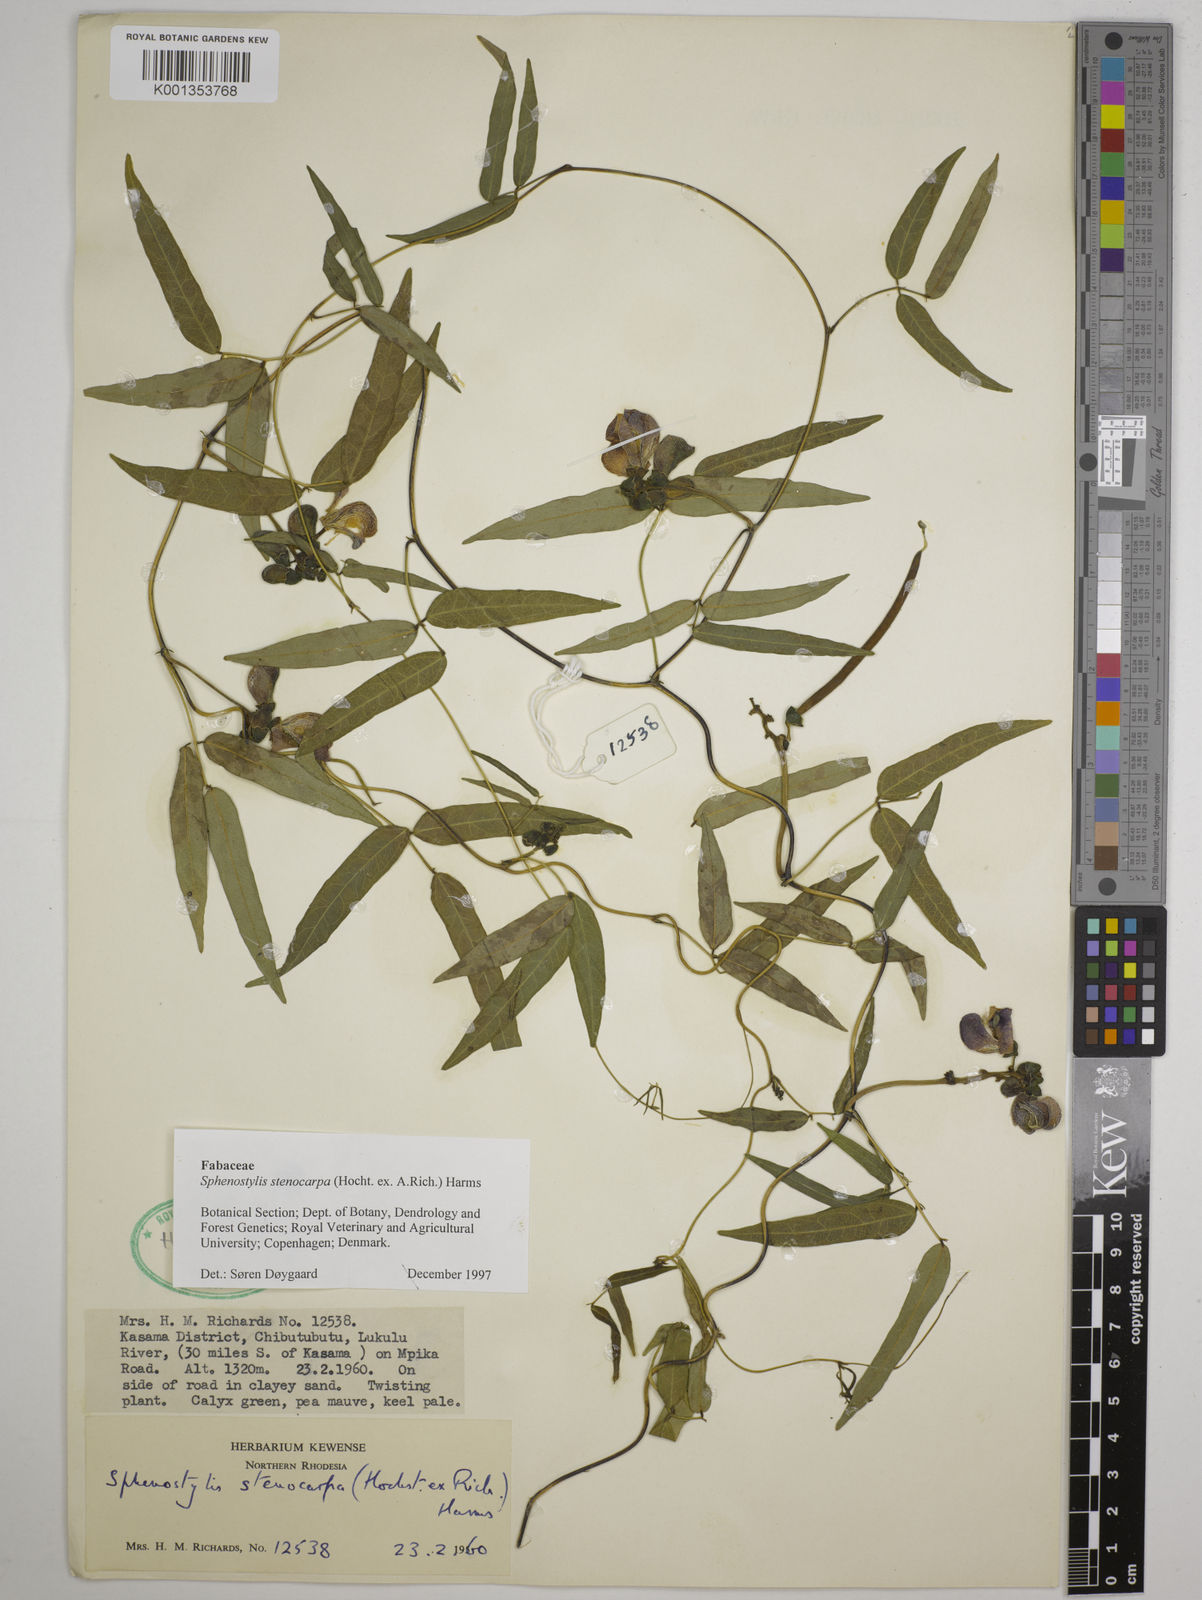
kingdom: Plantae
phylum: Tracheophyta
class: Magnoliopsida
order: Fabales
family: Fabaceae
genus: Sphenostylis
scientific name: Sphenostylis stenocarpa
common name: Yam-pea
